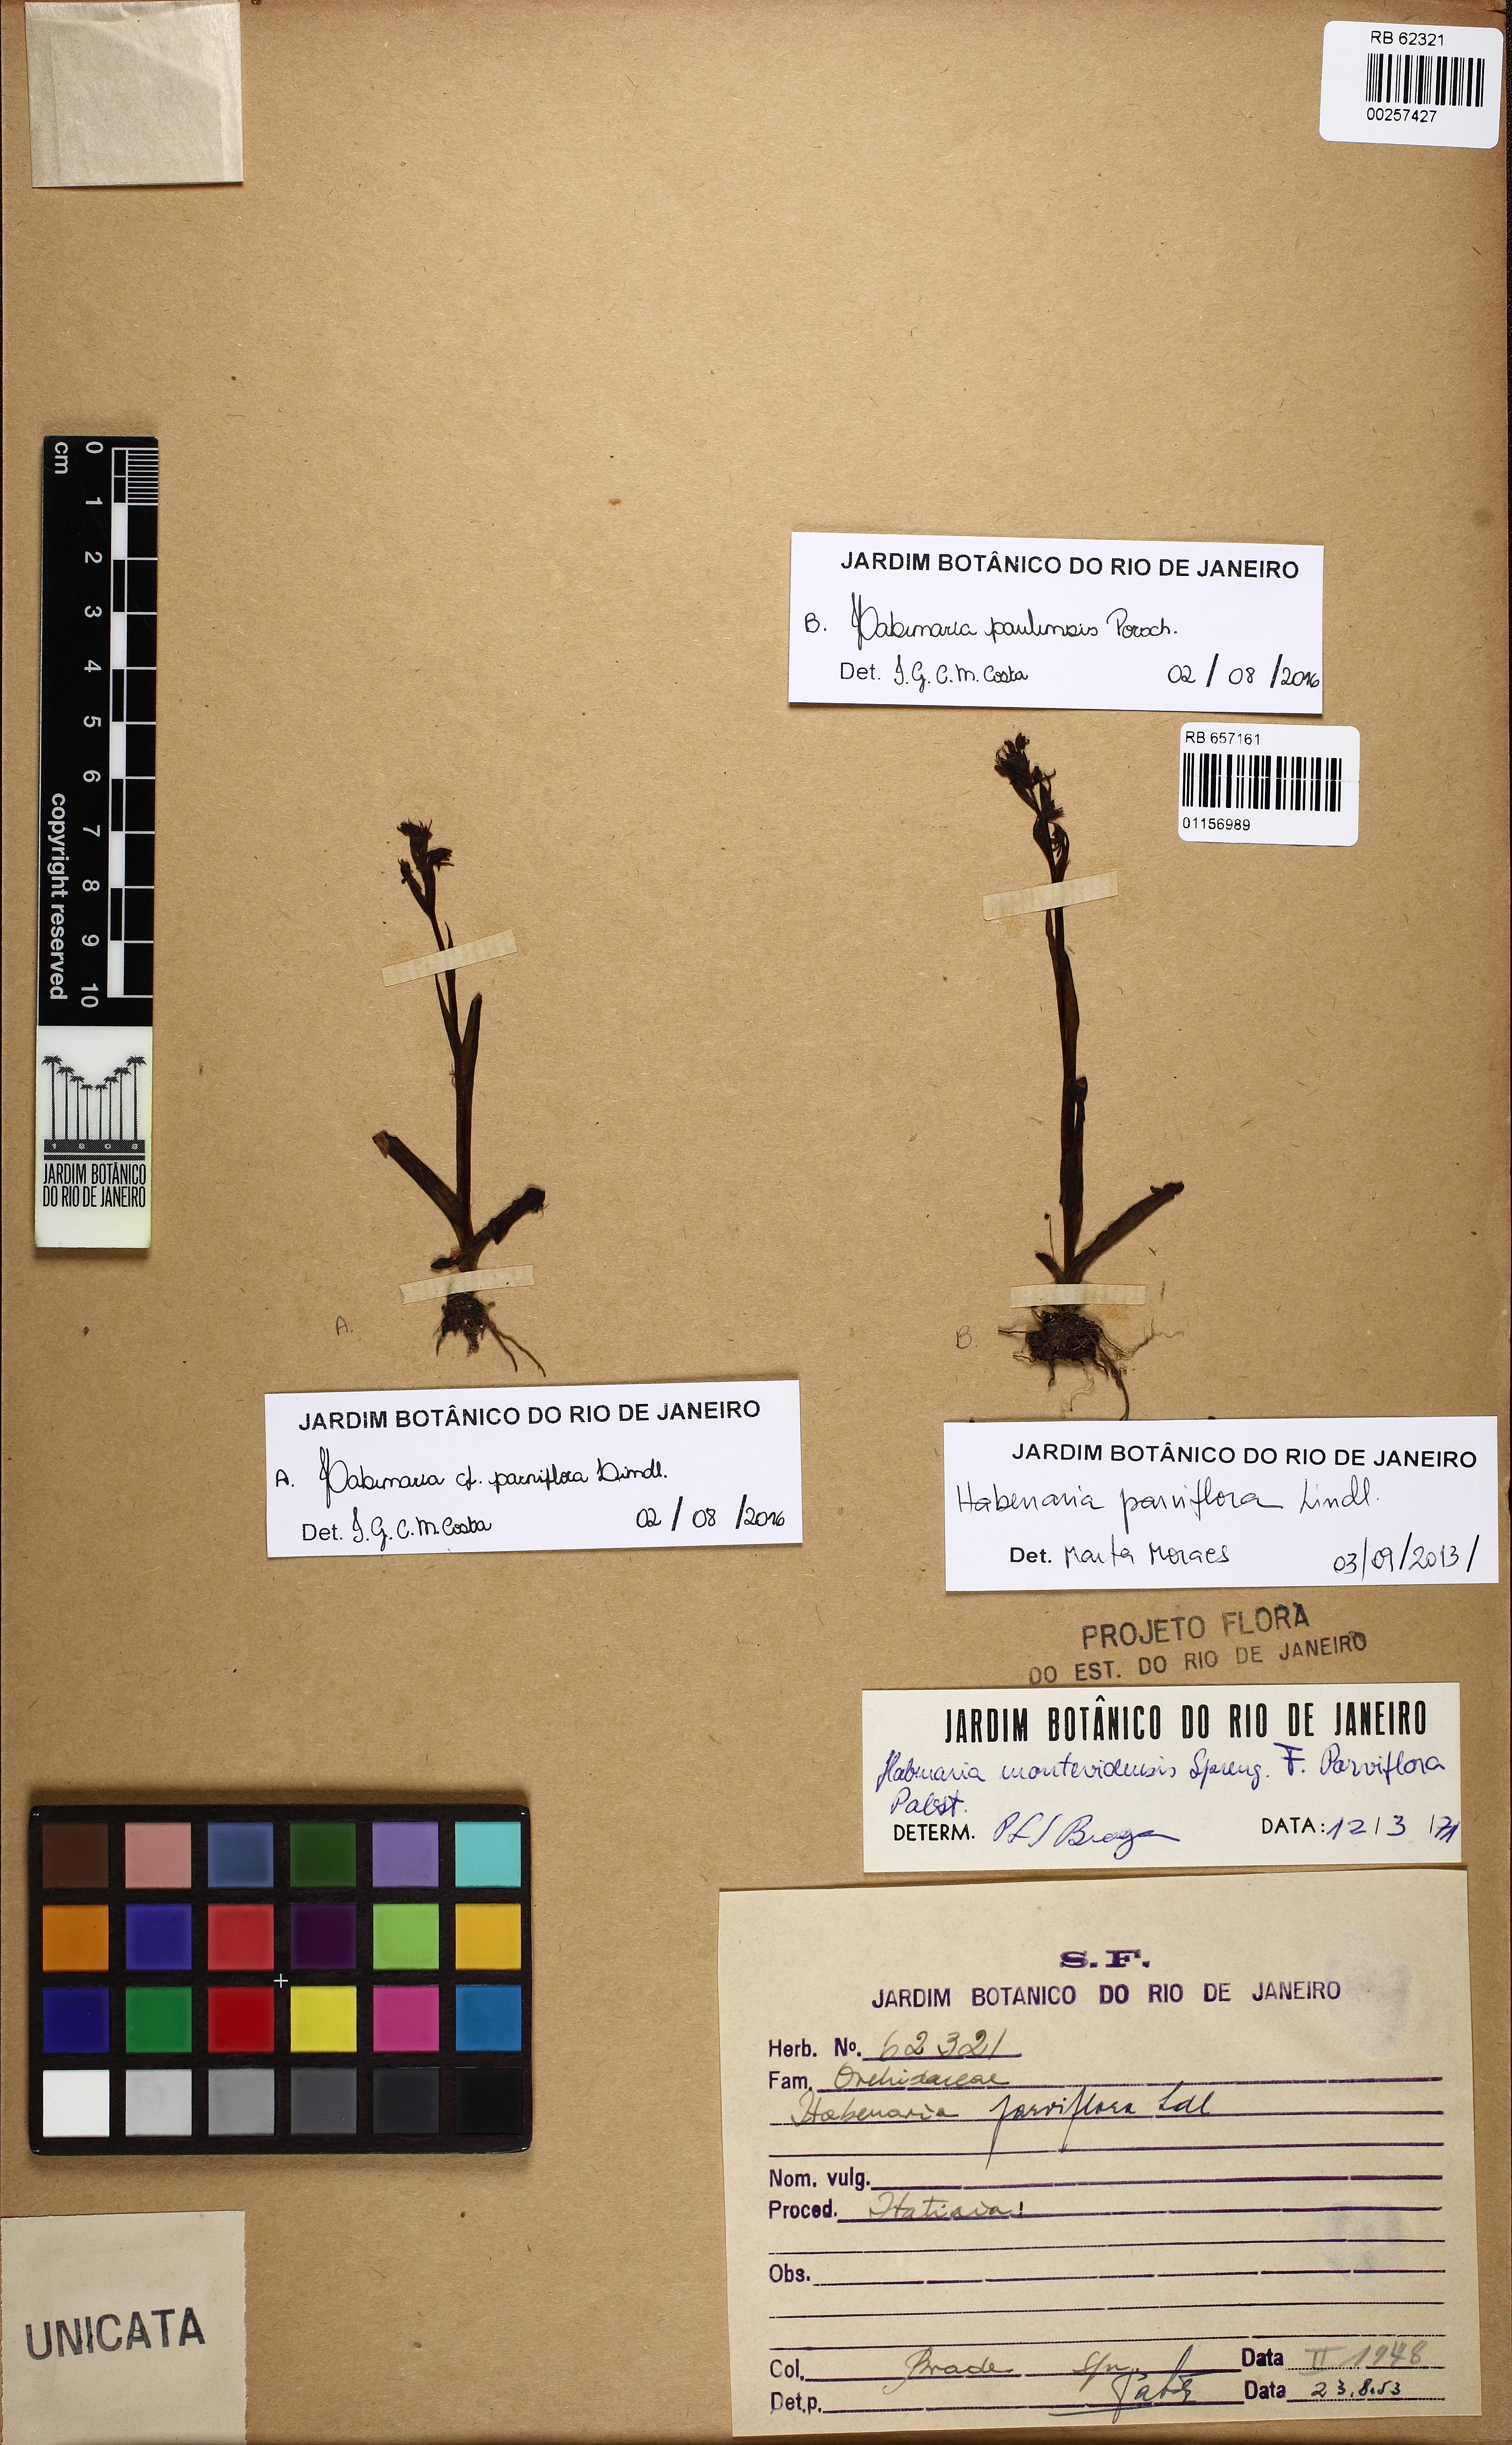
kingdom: Plantae
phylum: Tracheophyta
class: Liliopsida
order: Asparagales
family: Orchidaceae
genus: Habenaria
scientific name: Habenaria paulensis
